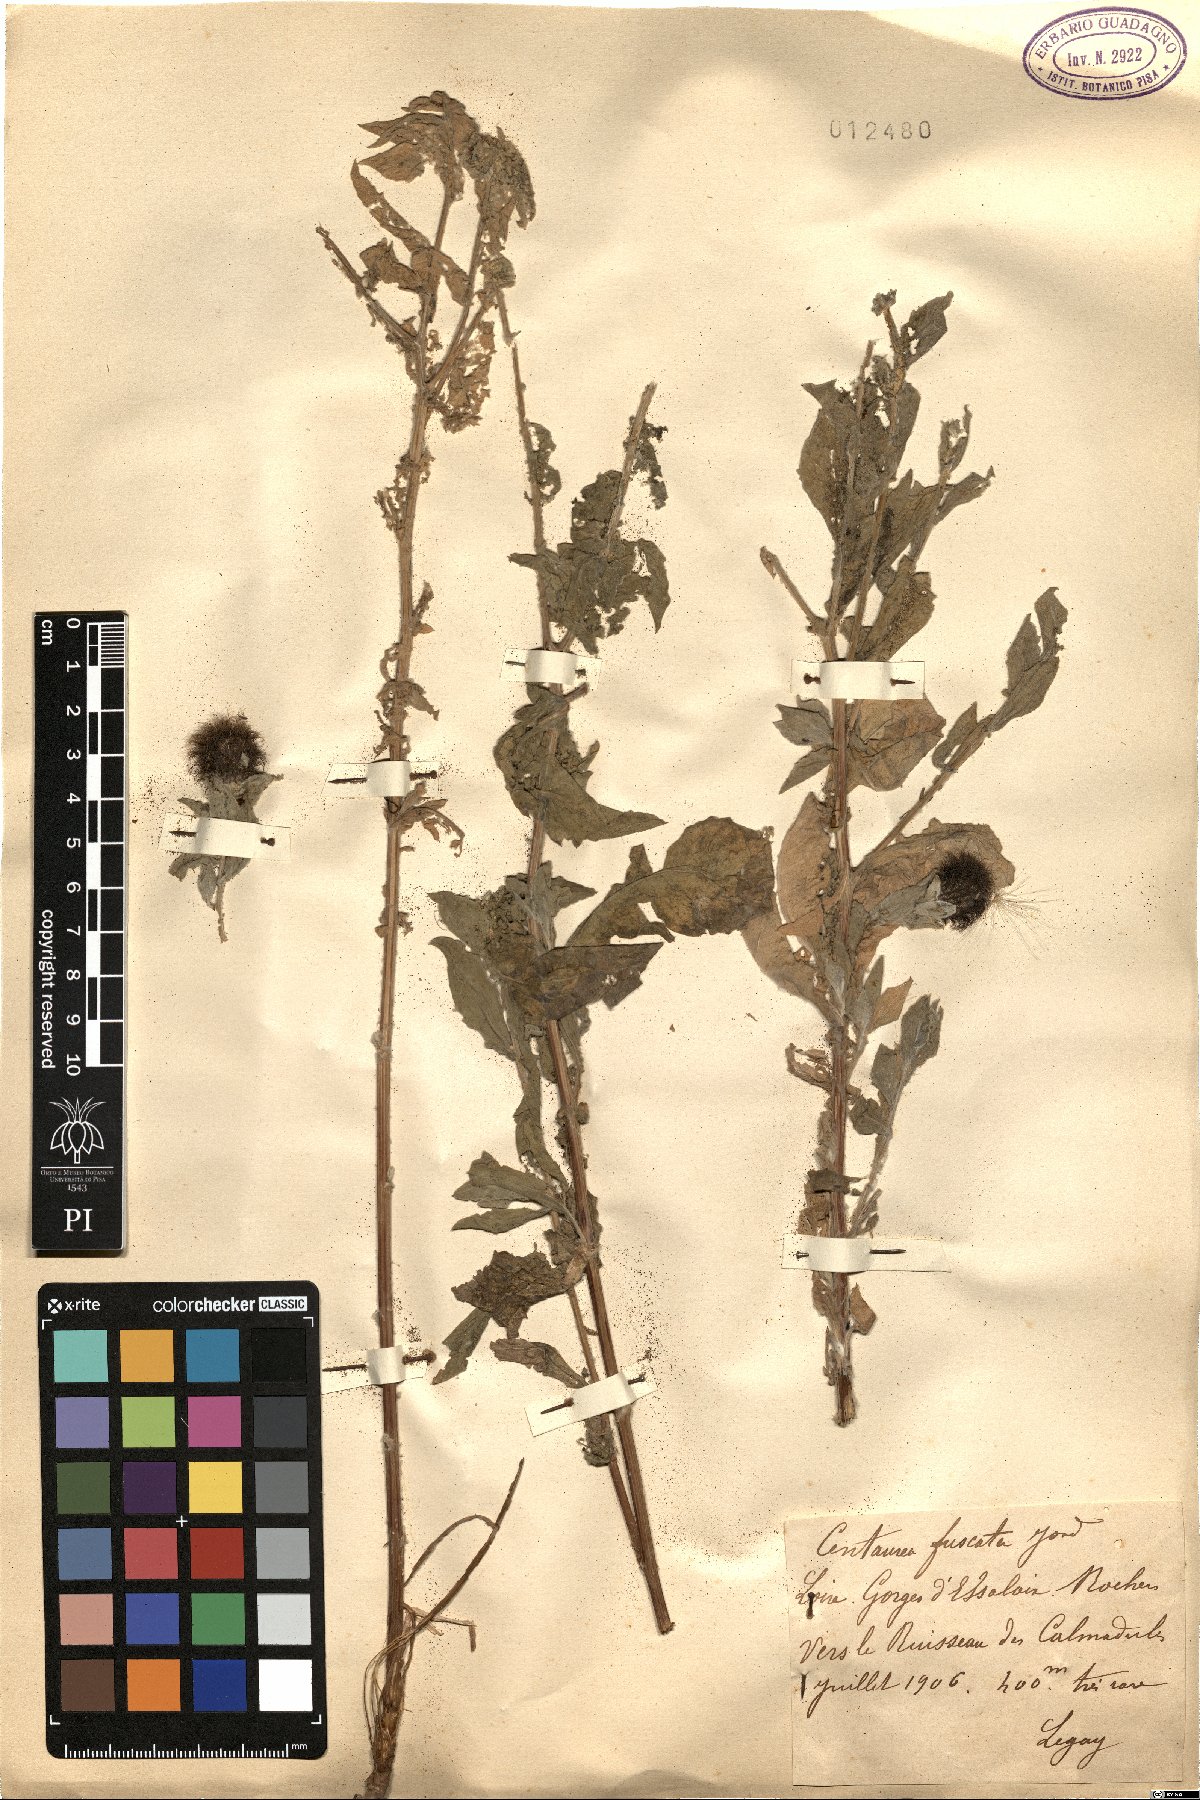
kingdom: Plantae
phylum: Tracheophyta
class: Magnoliopsida
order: Asterales
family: Asteraceae
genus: Centaurea
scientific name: Centaurea pectinata
